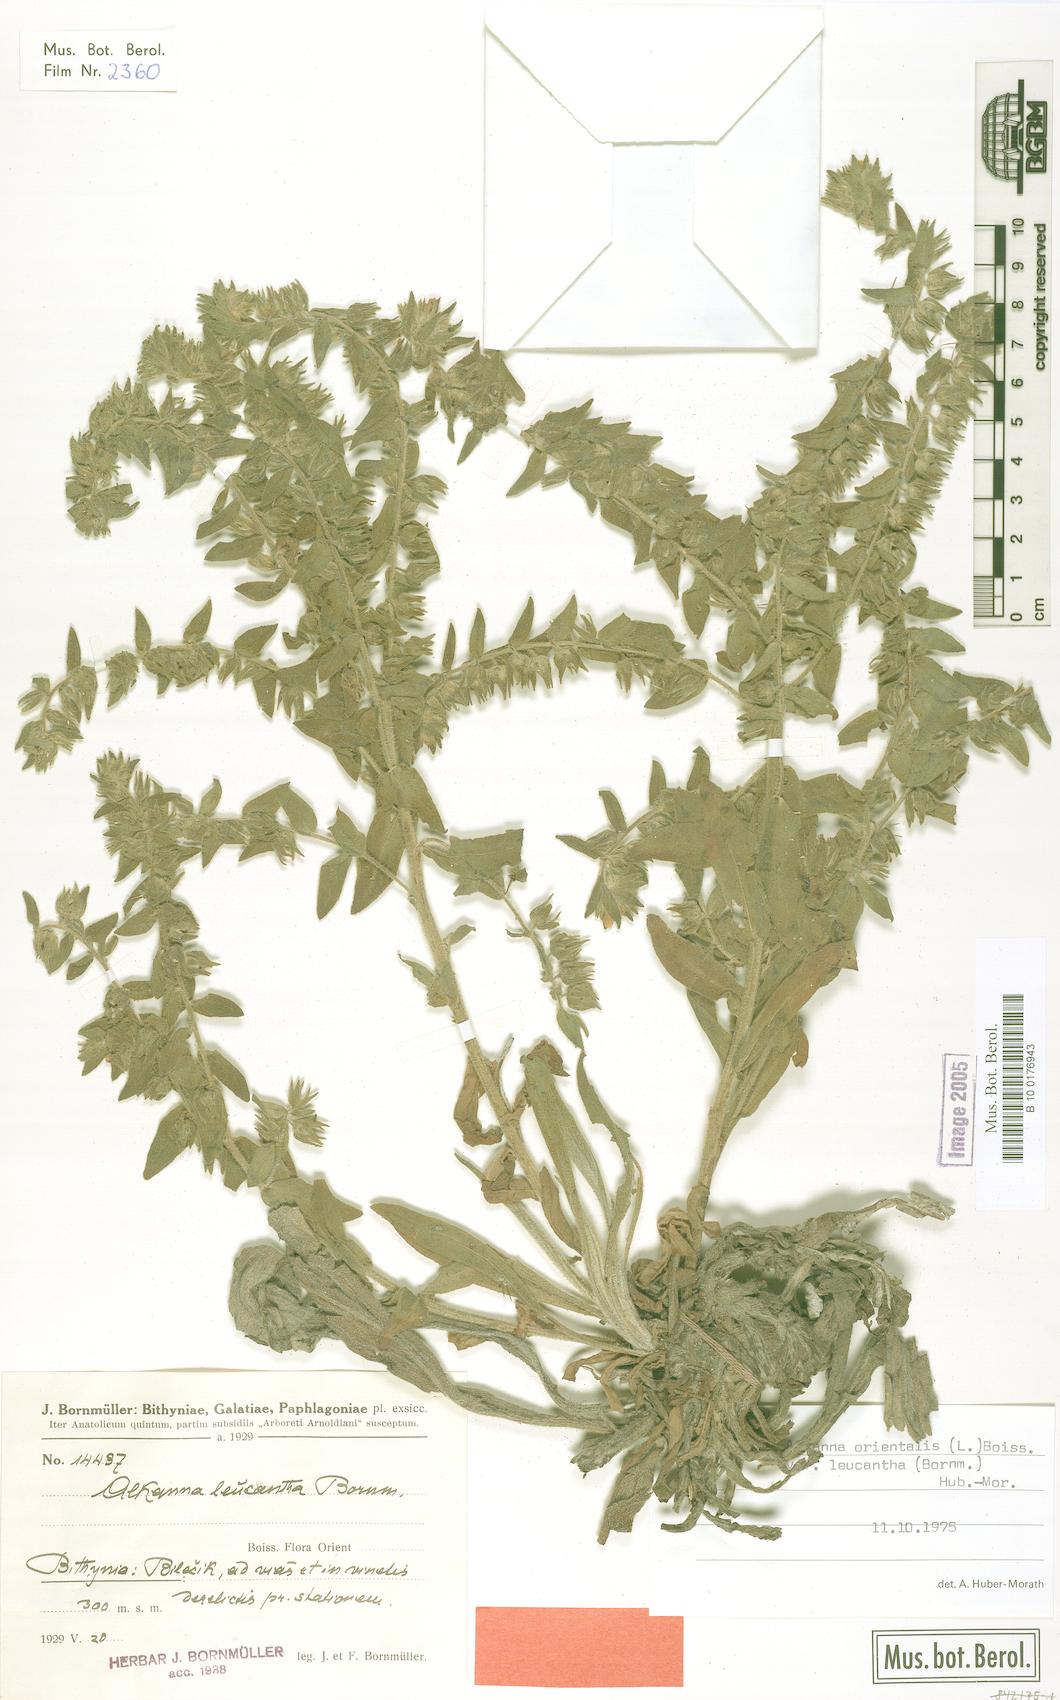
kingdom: Plantae
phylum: Tracheophyta
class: Magnoliopsida
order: Boraginales
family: Boraginaceae
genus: Alkanna
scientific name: Alkanna orientalis
